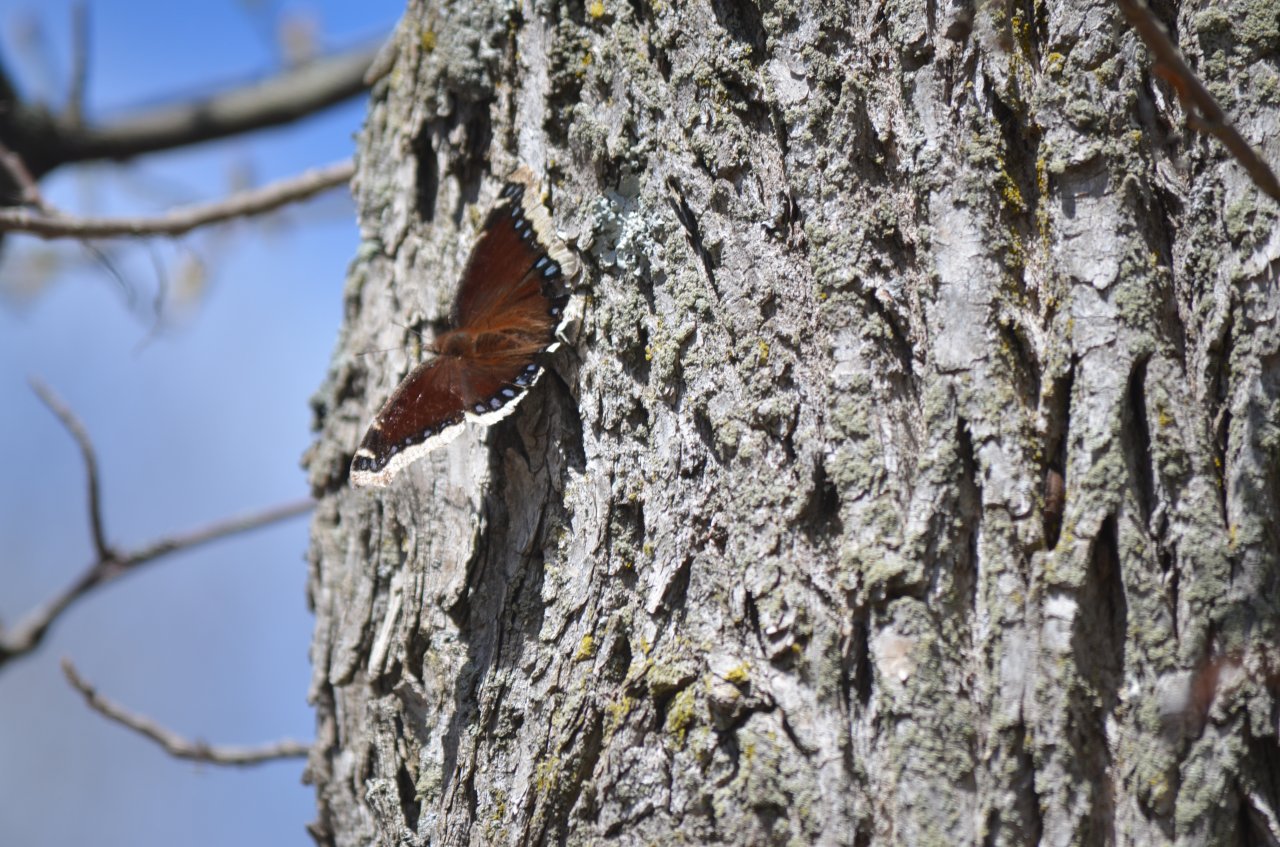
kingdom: Animalia
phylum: Arthropoda
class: Insecta
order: Lepidoptera
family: Nymphalidae
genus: Nymphalis
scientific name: Nymphalis antiopa
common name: Mourning Cloak
